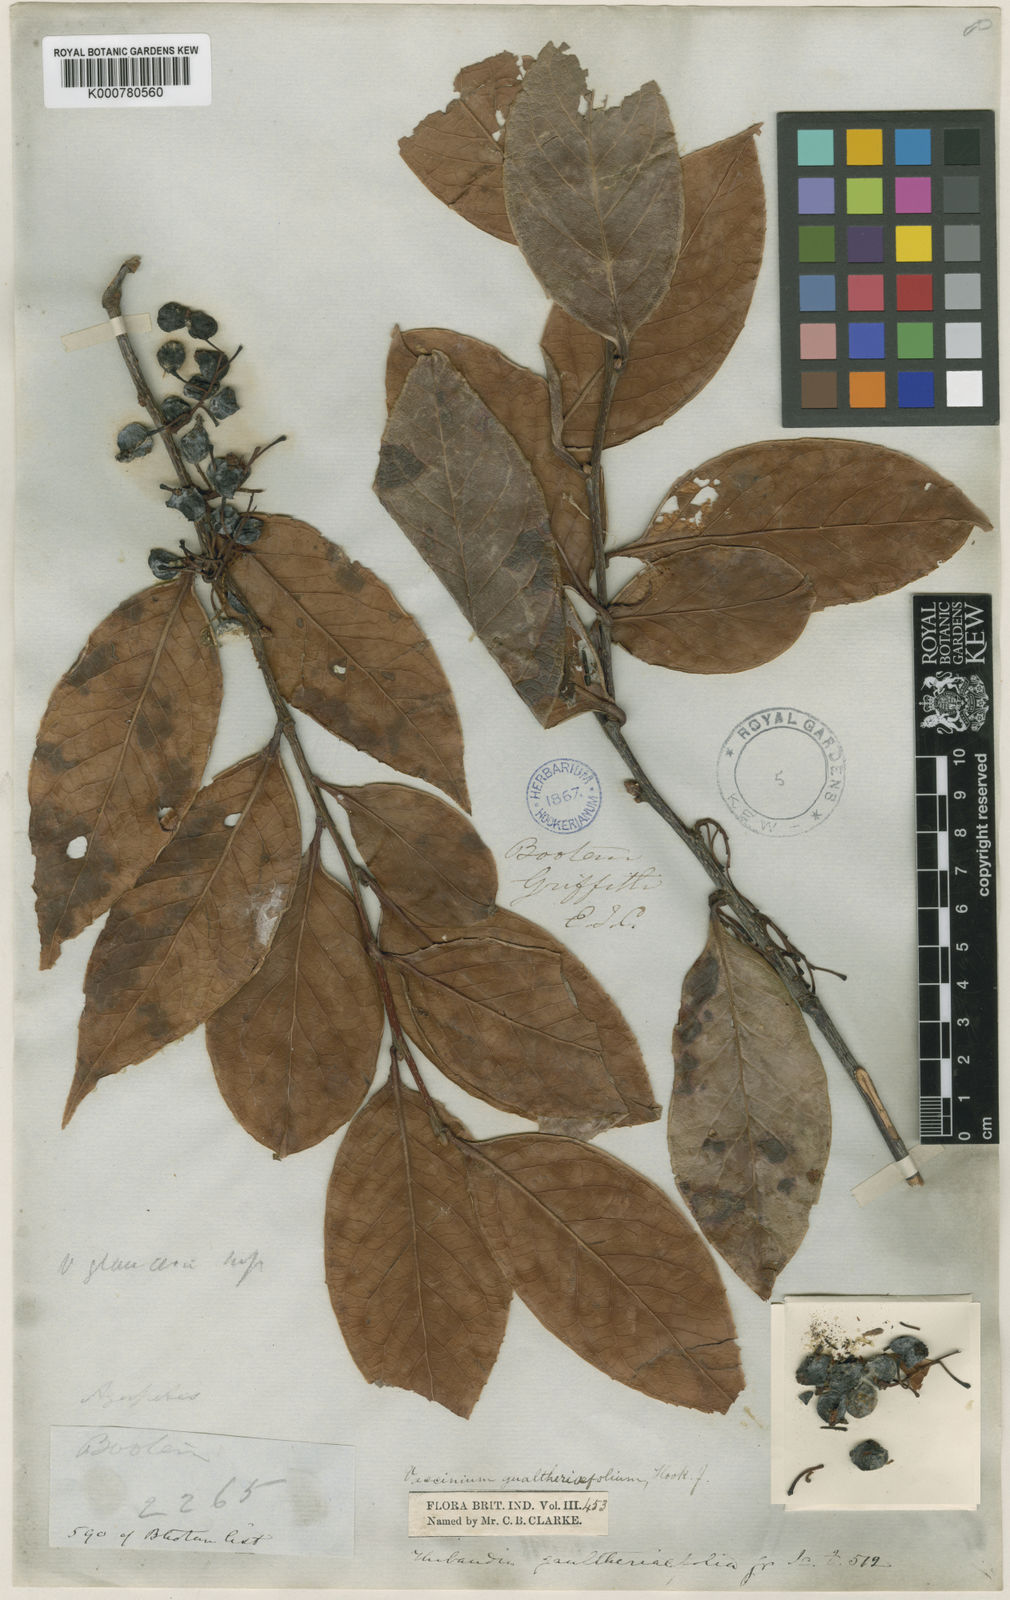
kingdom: Plantae
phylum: Tracheophyta
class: Magnoliopsida
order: Ericales
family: Ericaceae
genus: Vaccinium
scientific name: Vaccinium gaultheriifolium
